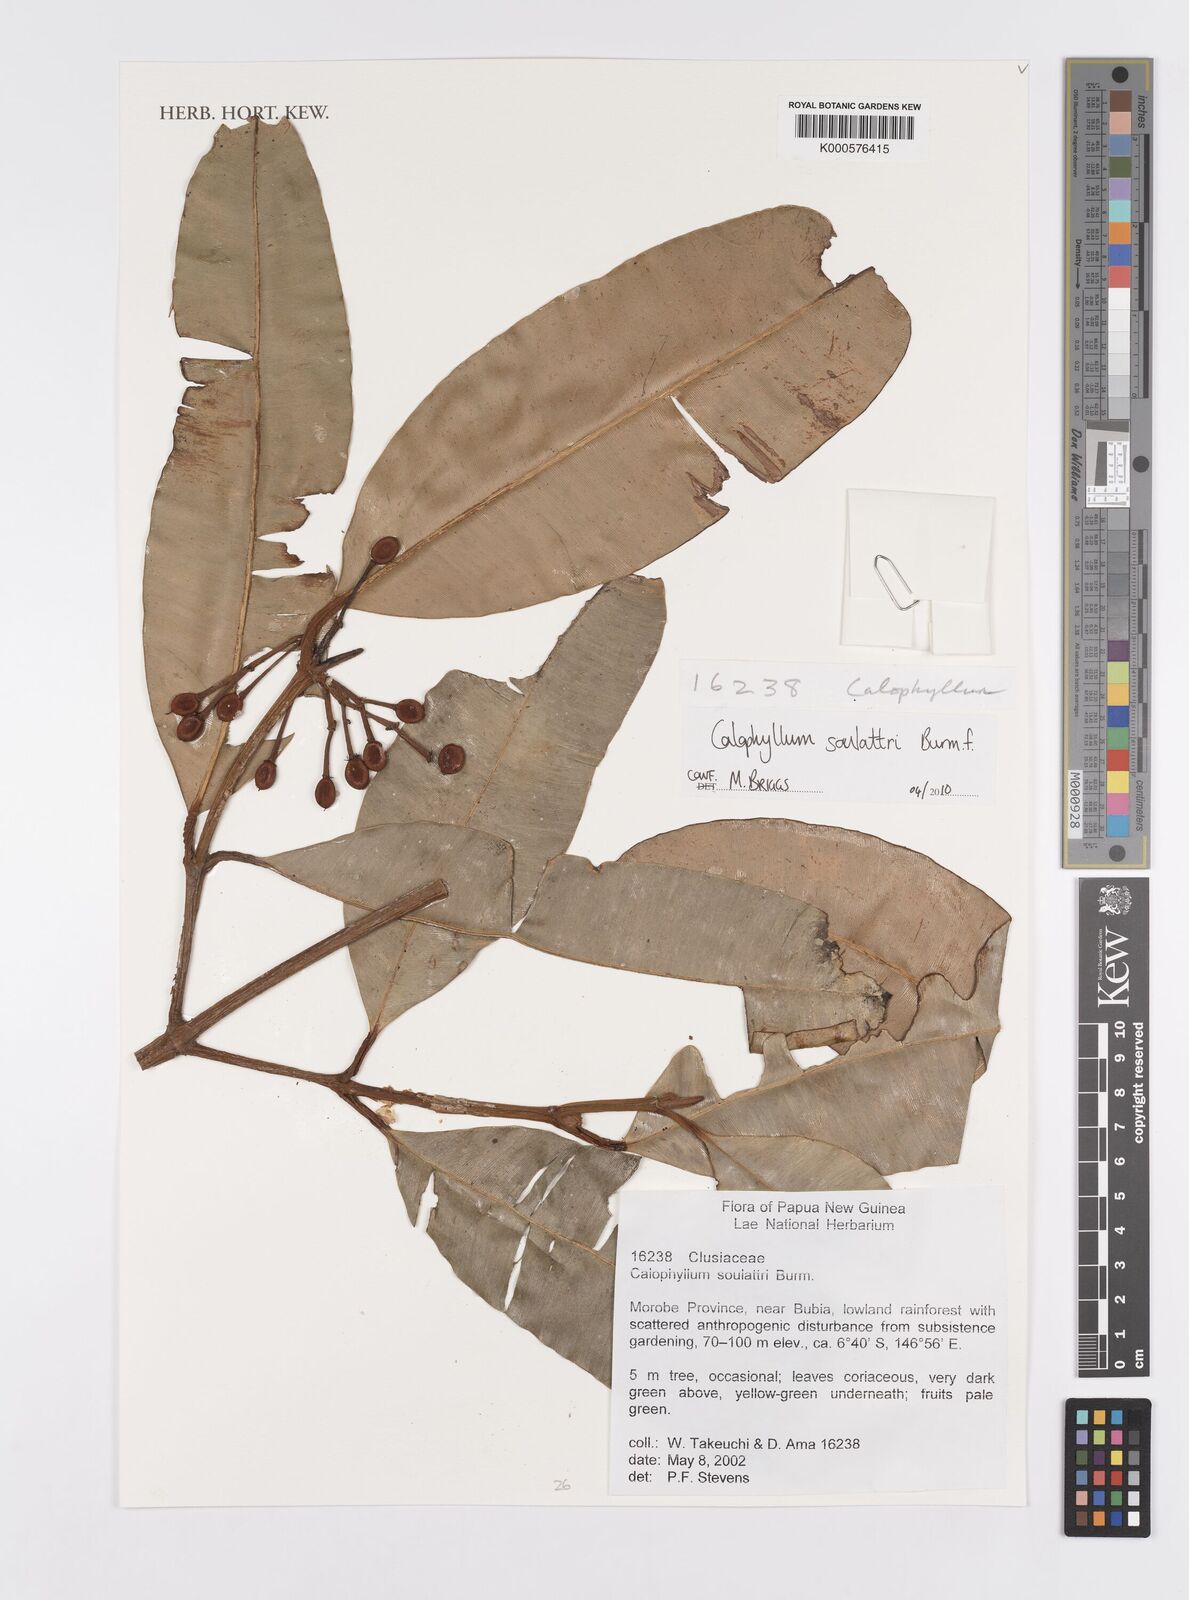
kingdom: Plantae
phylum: Tracheophyta
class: Magnoliopsida
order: Malpighiales
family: Calophyllaceae
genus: Calophyllum
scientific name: Calophyllum soulattri
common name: Bitangoor boonot
